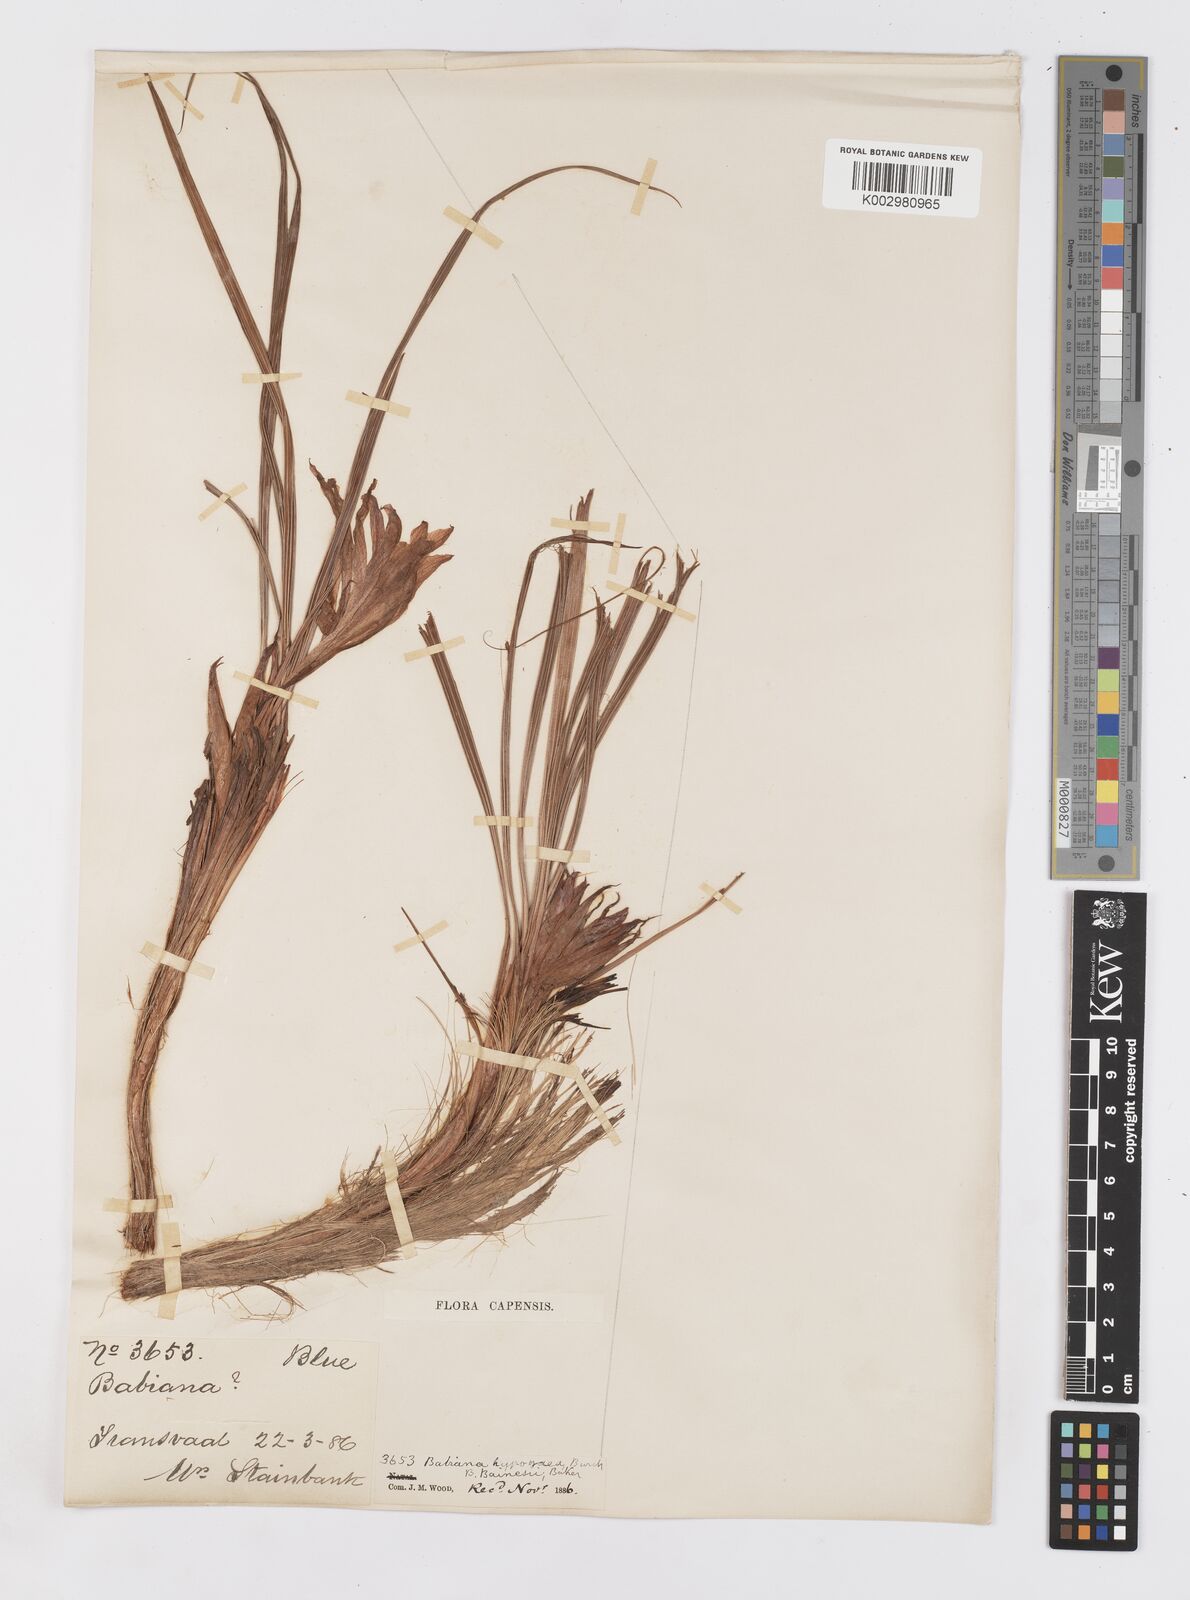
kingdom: Plantae
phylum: Tracheophyta
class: Liliopsida
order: Asparagales
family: Iridaceae
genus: Babiana
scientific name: Babiana
